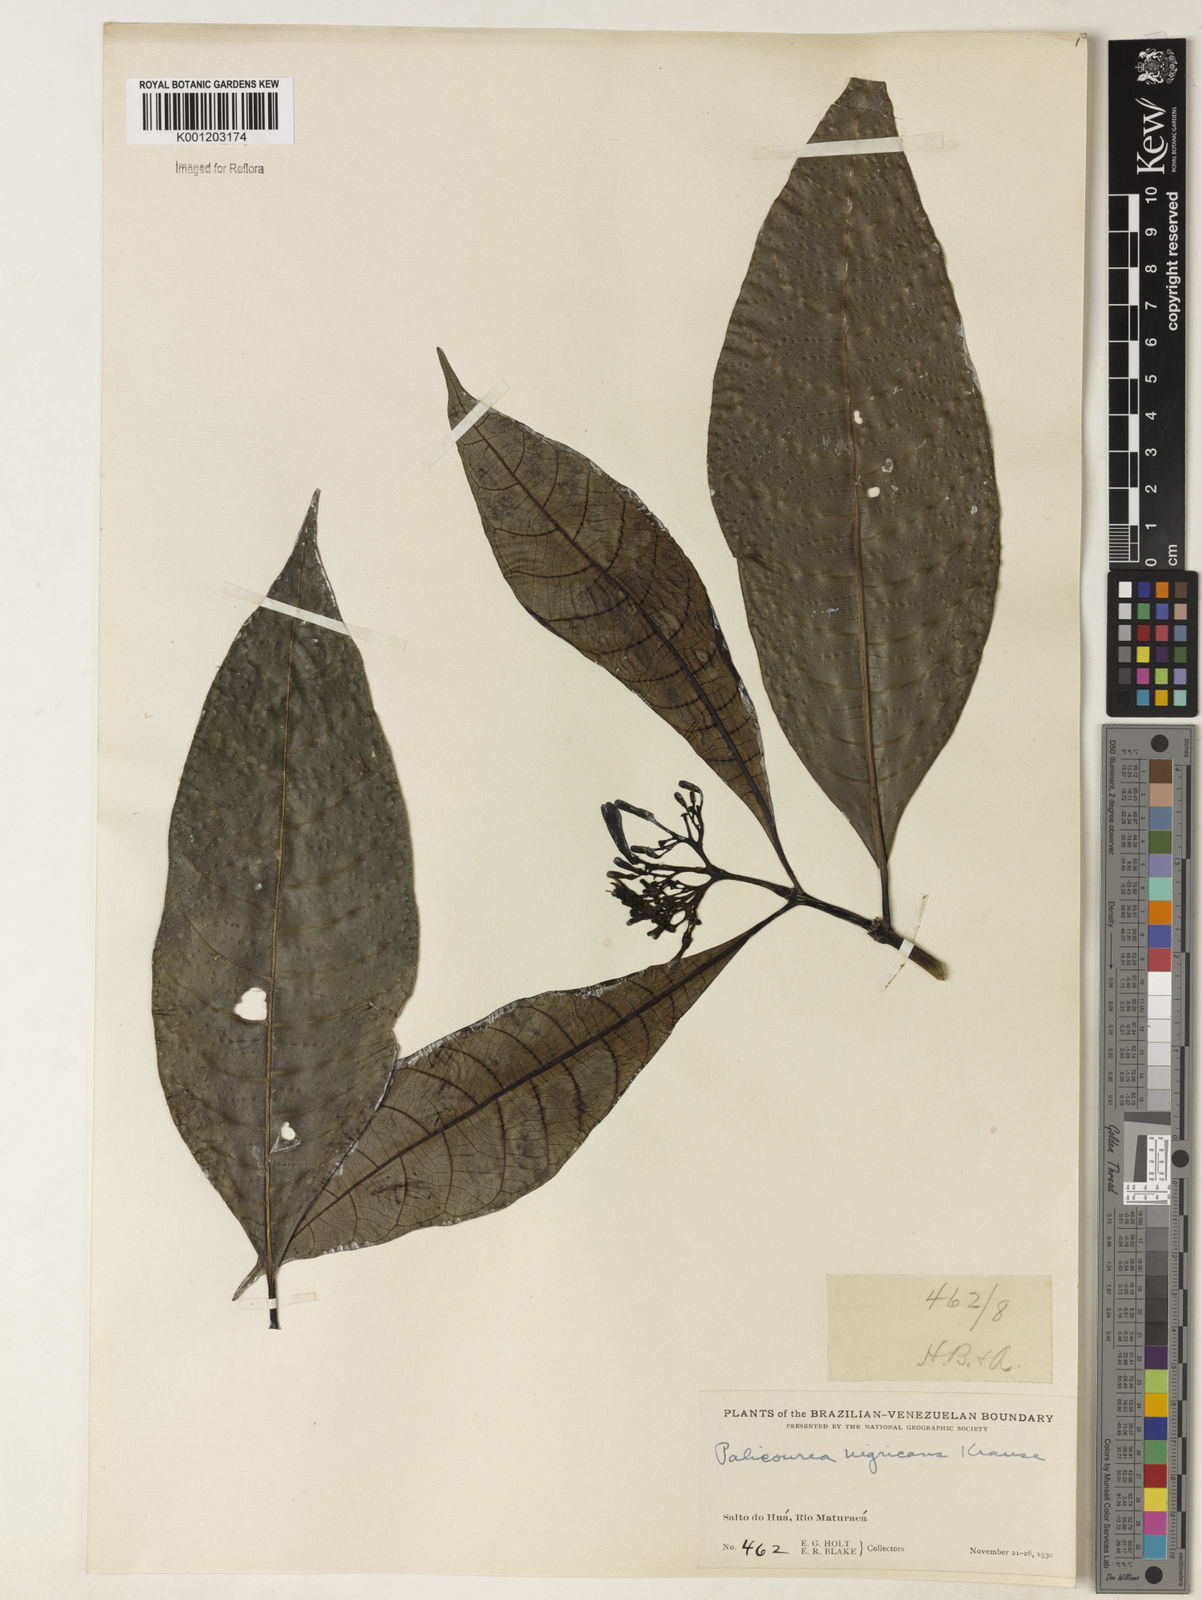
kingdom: Plantae
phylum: Tracheophyta
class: Magnoliopsida
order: Gentianales
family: Rubiaceae
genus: Palicourea
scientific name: Palicourea nigricans
